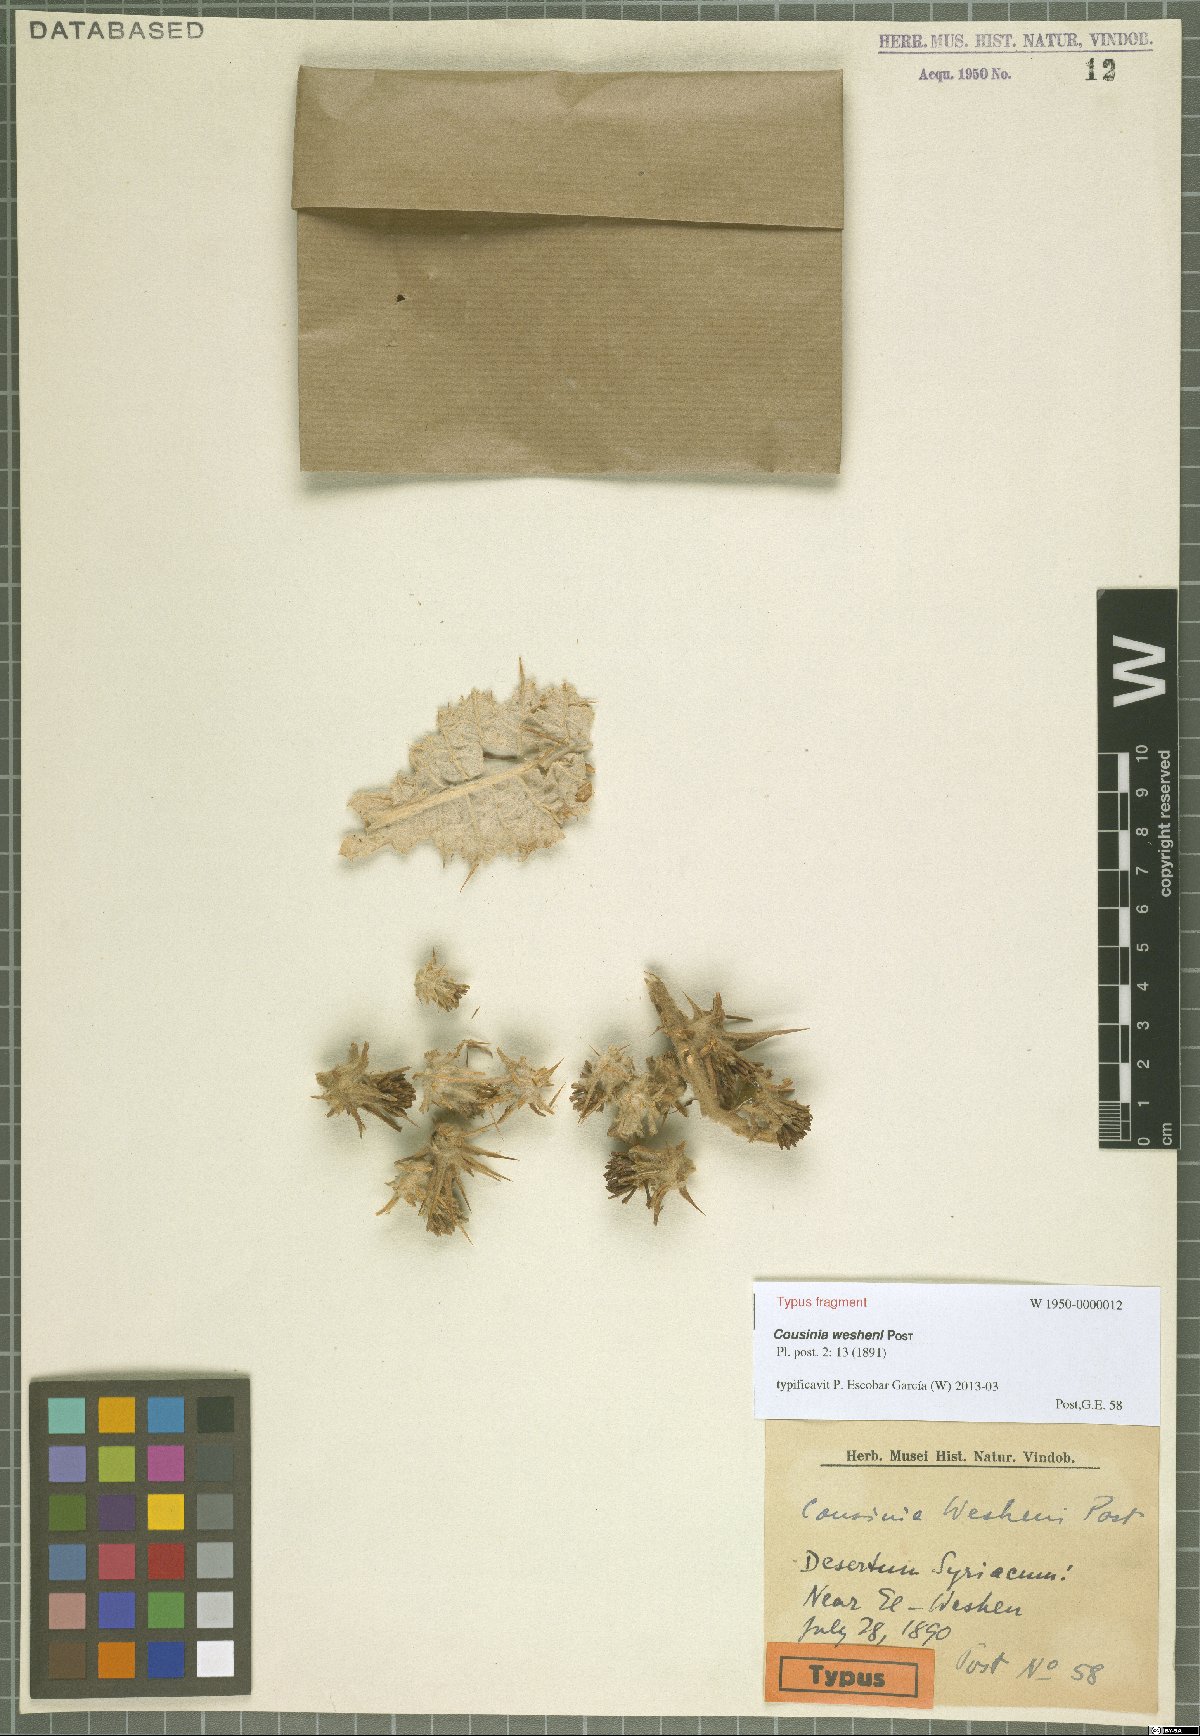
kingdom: Plantae
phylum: Tracheophyta
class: Magnoliopsida
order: Asterales
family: Asteraceae
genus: Cousinia
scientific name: Cousinia wesheni
